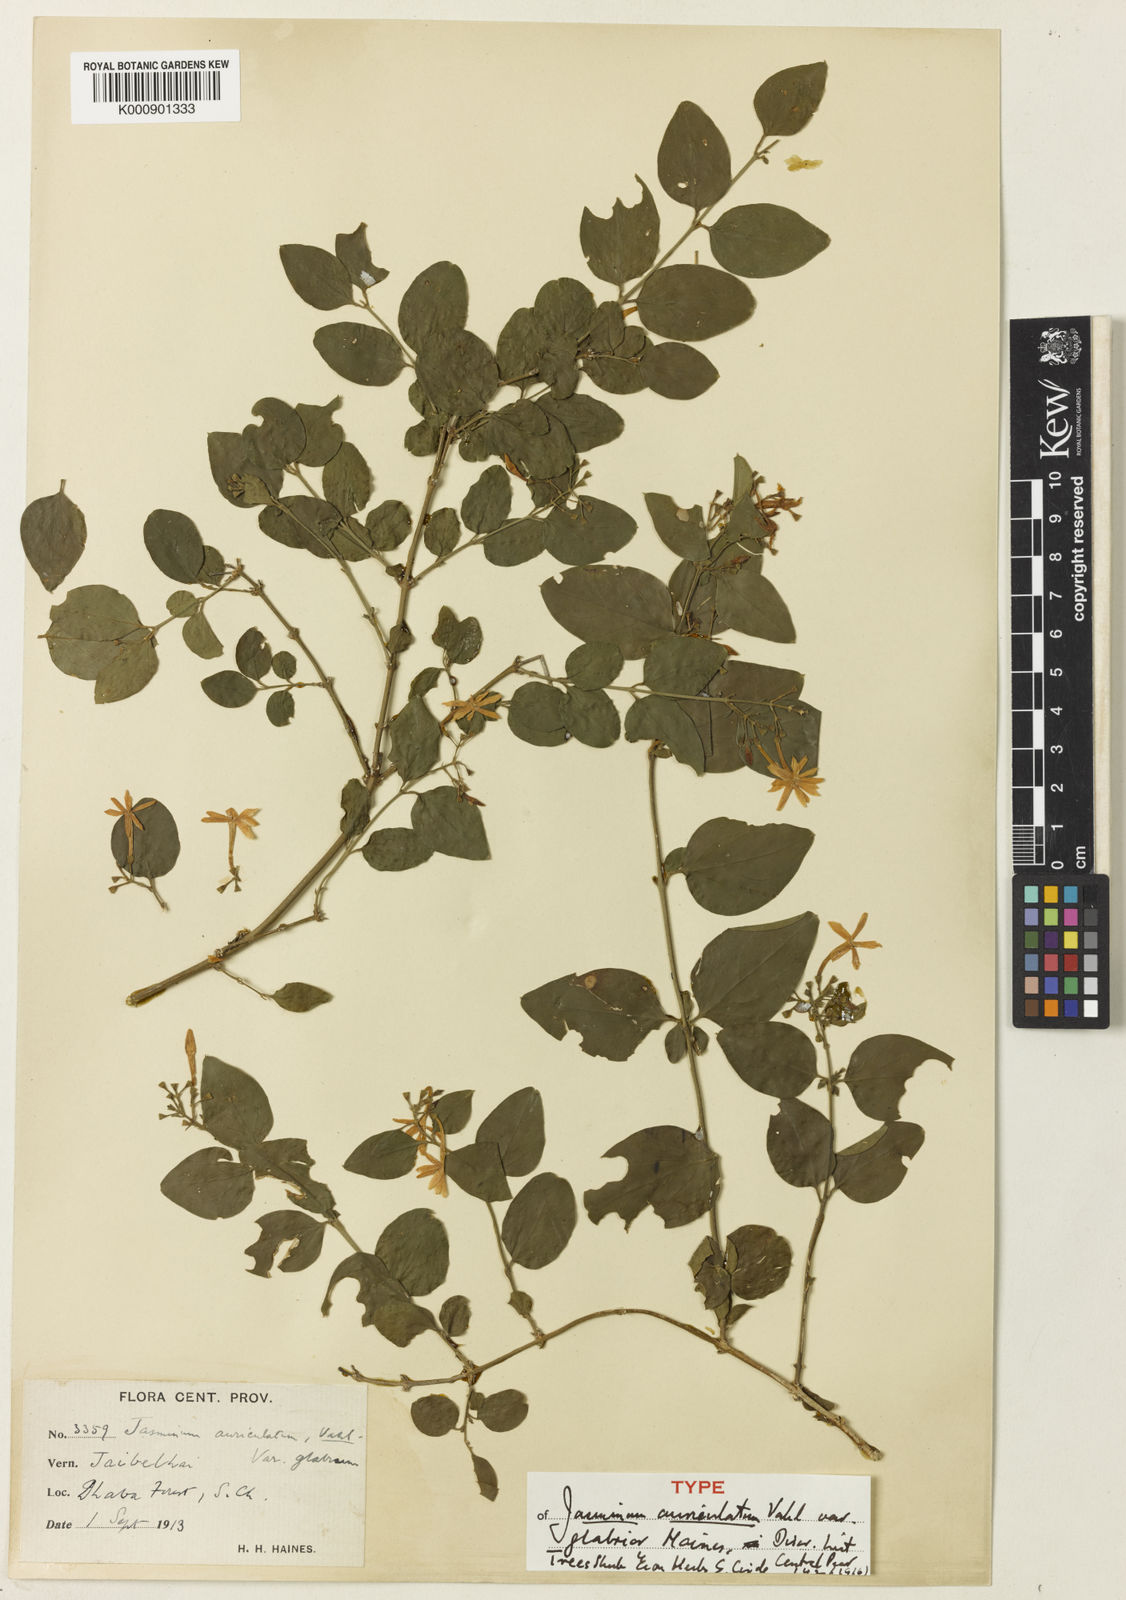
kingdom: Plantae
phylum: Tracheophyta
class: Magnoliopsida
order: Lamiales
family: Oleaceae
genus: Jasminum
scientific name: Jasminum auriculatum
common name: Needle-flower jasmine
